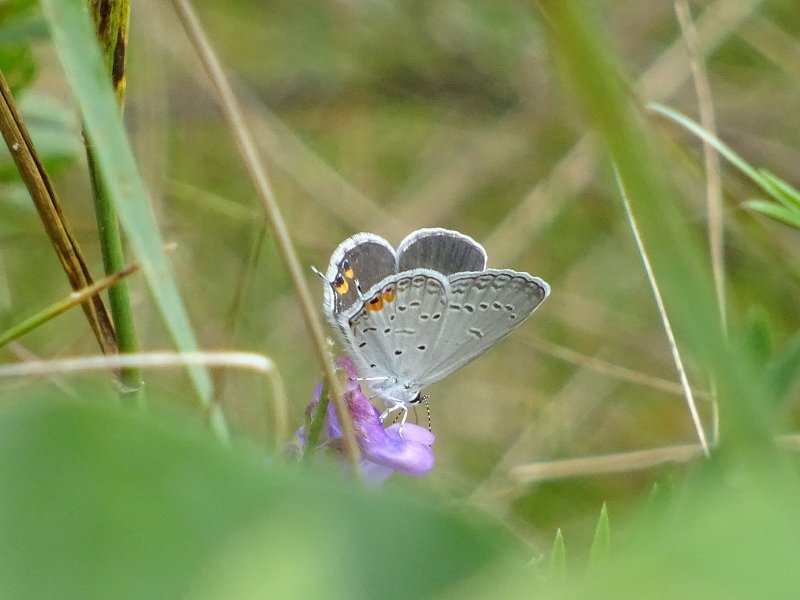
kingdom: Animalia
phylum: Arthropoda
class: Insecta
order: Lepidoptera
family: Lycaenidae
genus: Elkalyce
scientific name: Elkalyce comyntas
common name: Eastern Tailed-Blue
